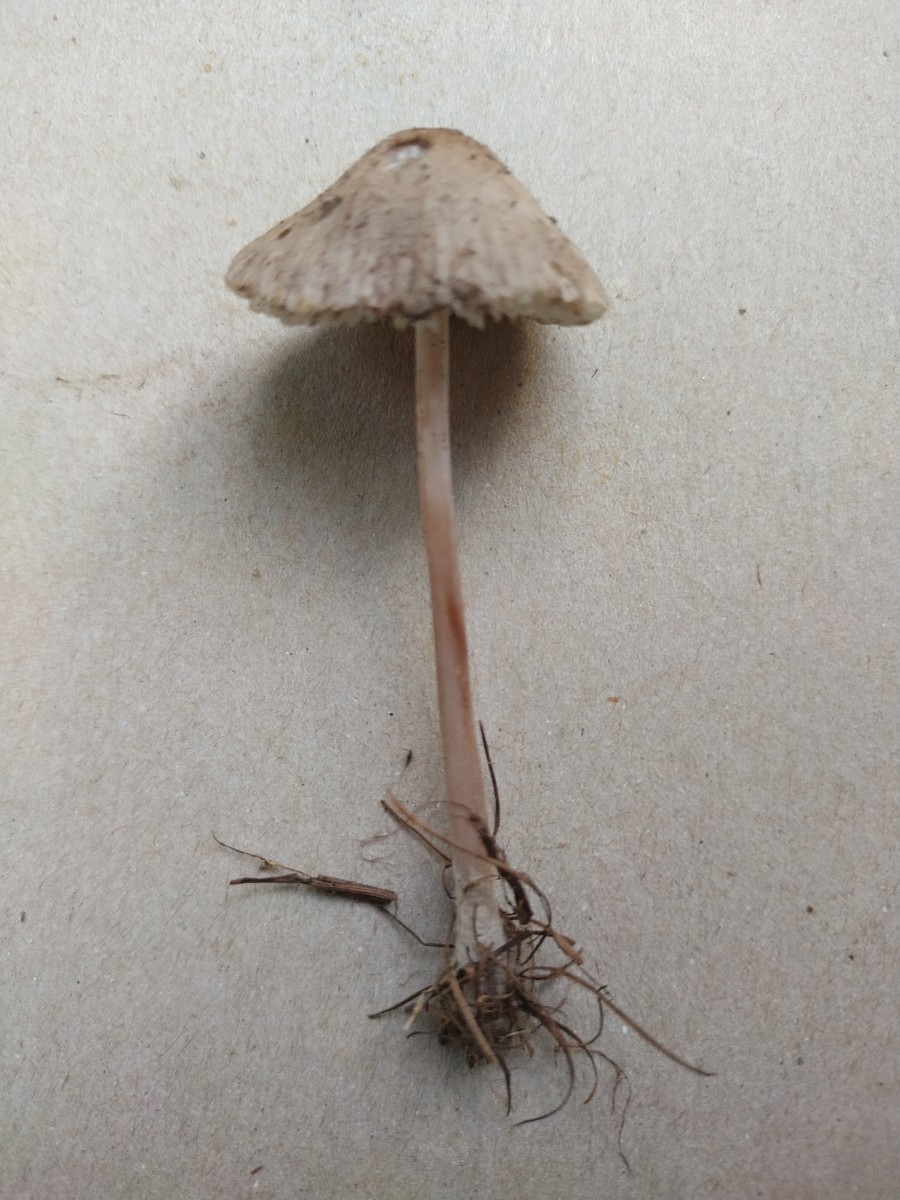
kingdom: Fungi
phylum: Basidiomycota
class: Agaricomycetes
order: Agaricales
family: Mycenaceae
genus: Mycena
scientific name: Mycena
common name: huesvamp
